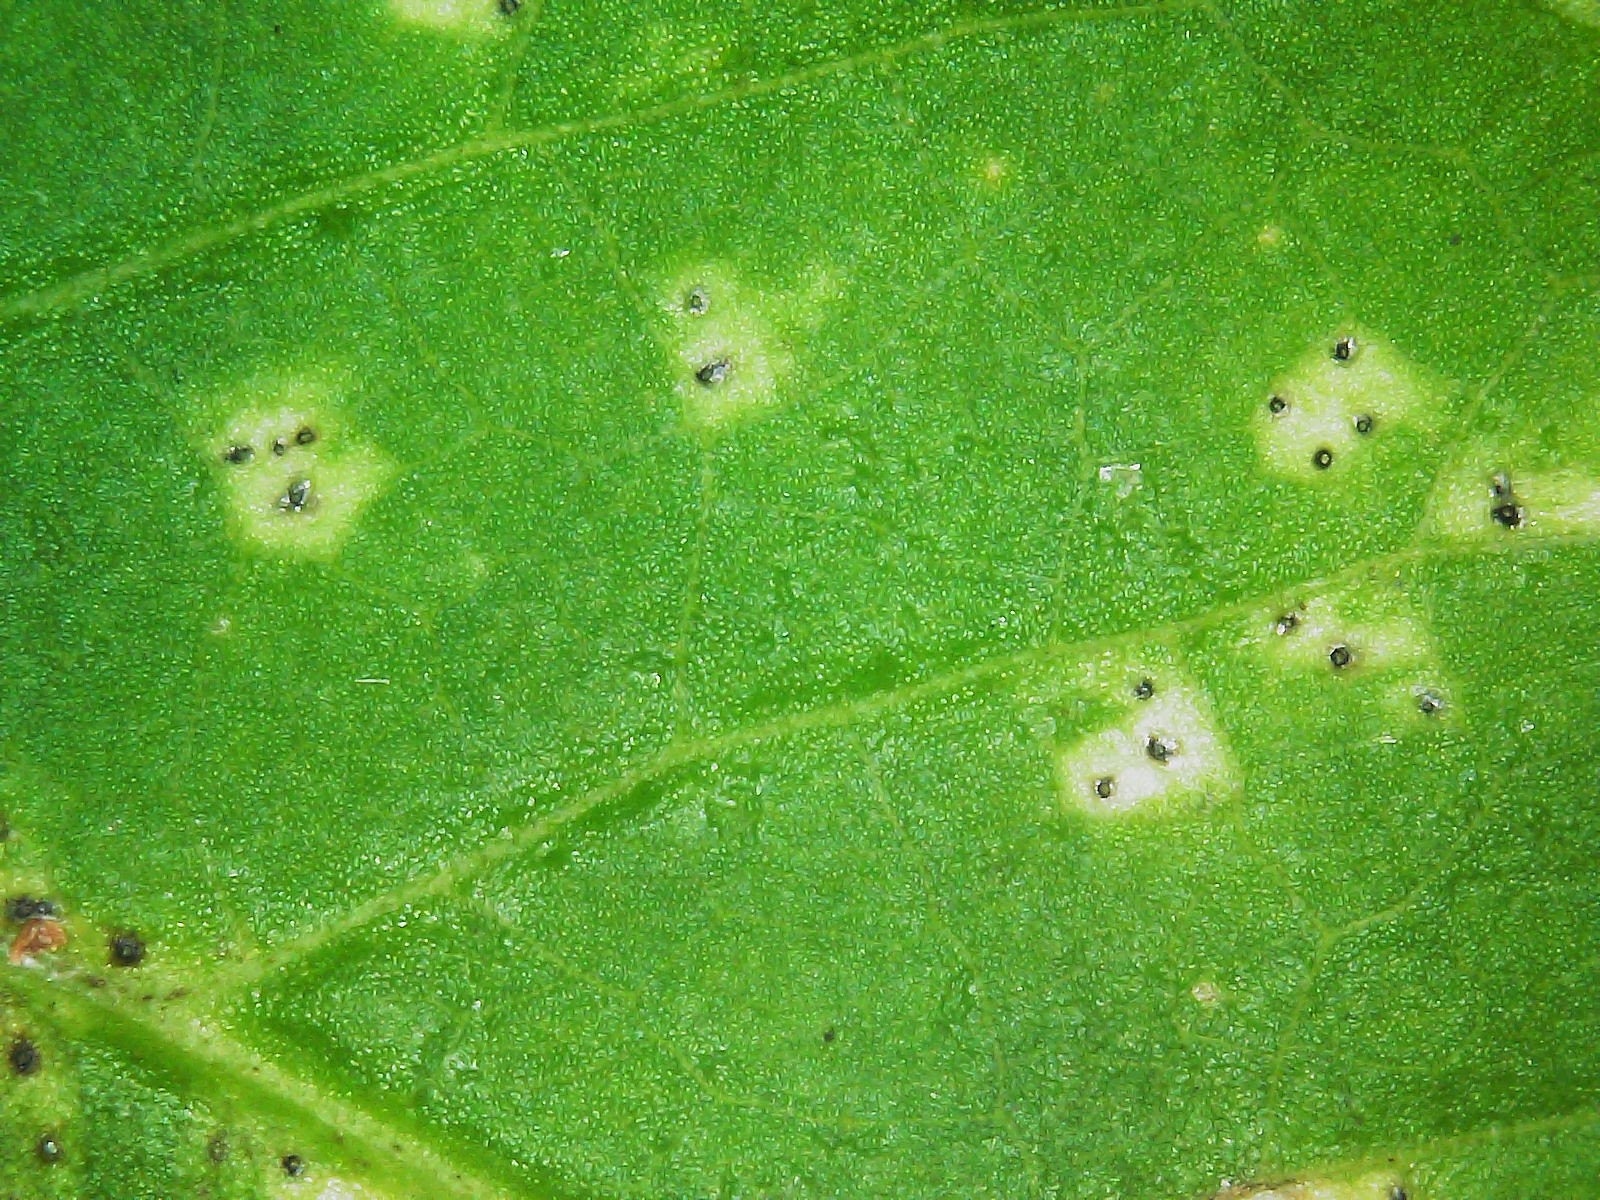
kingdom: Fungi
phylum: Ascomycota
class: Dothideomycetes
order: Mycosphaerellales
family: Mycosphaerellaceae
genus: Mycosphaerella
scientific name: Mycosphaerella podagrariae
